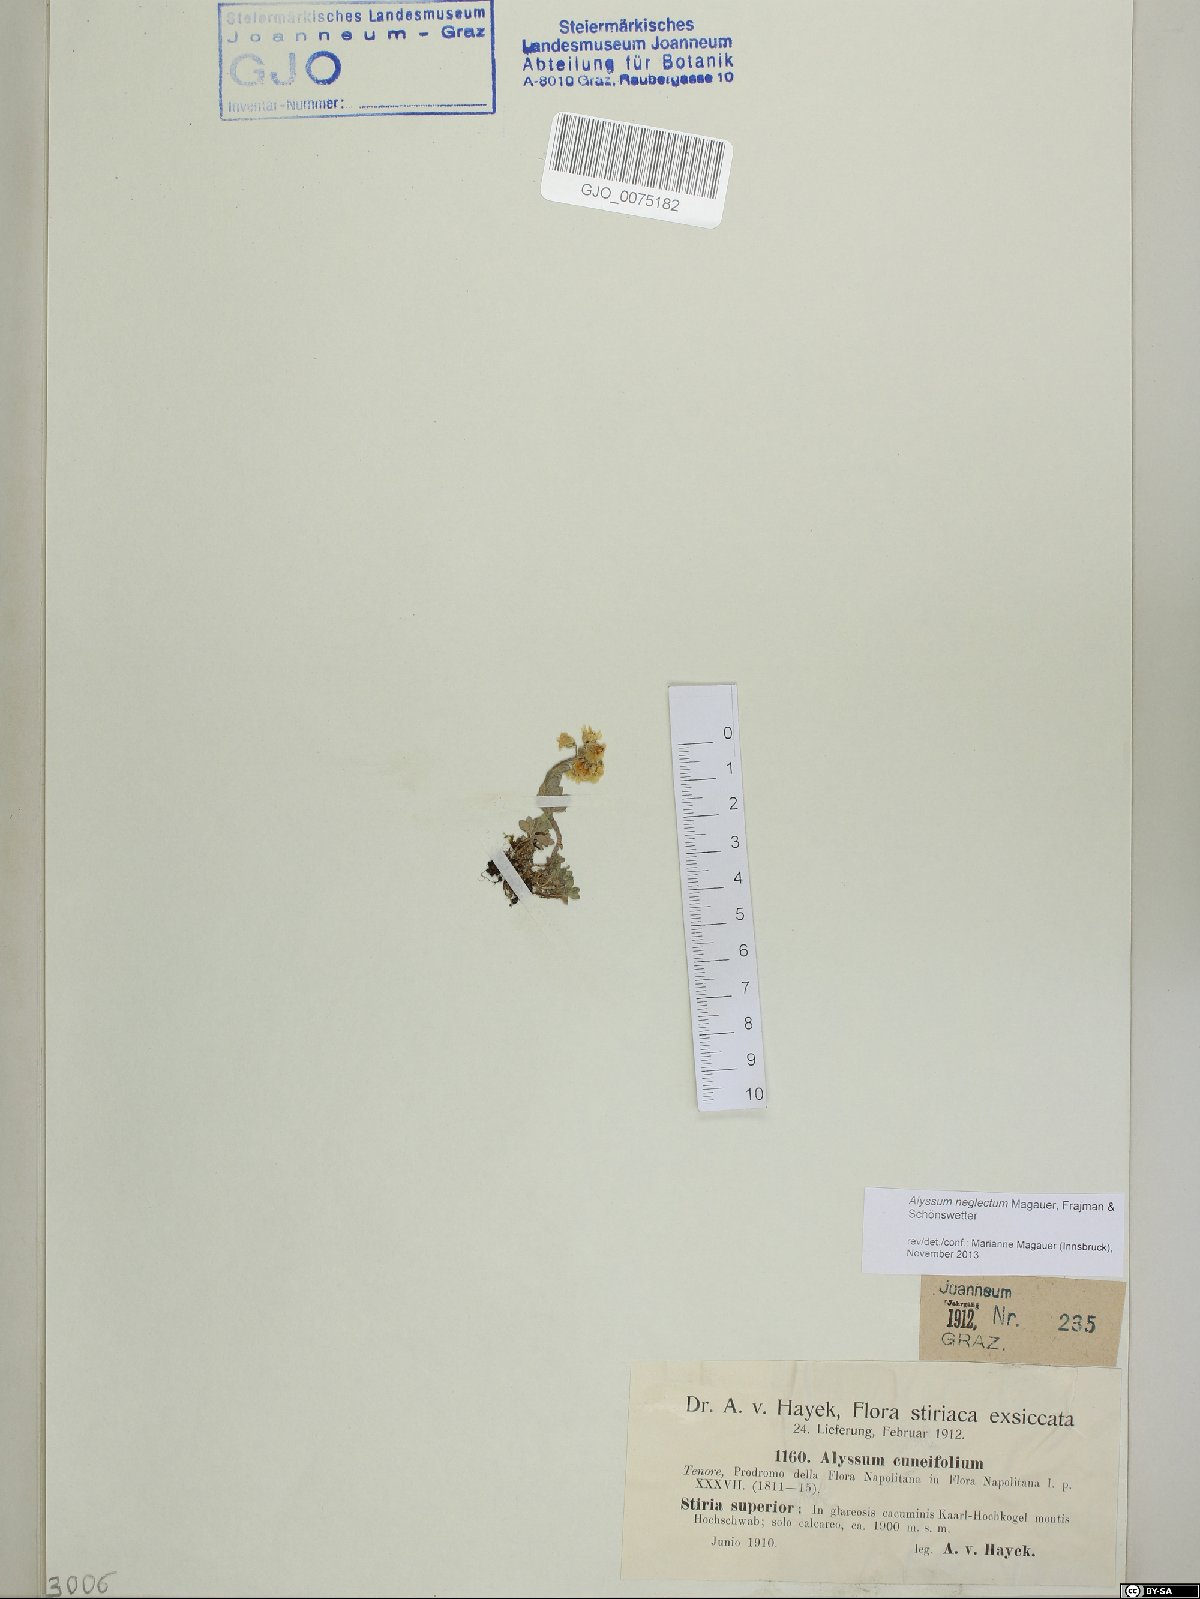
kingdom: Plantae
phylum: Tracheophyta
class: Magnoliopsida
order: Brassicales
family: Brassicaceae
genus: Alyssum
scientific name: Alyssum neglectum
